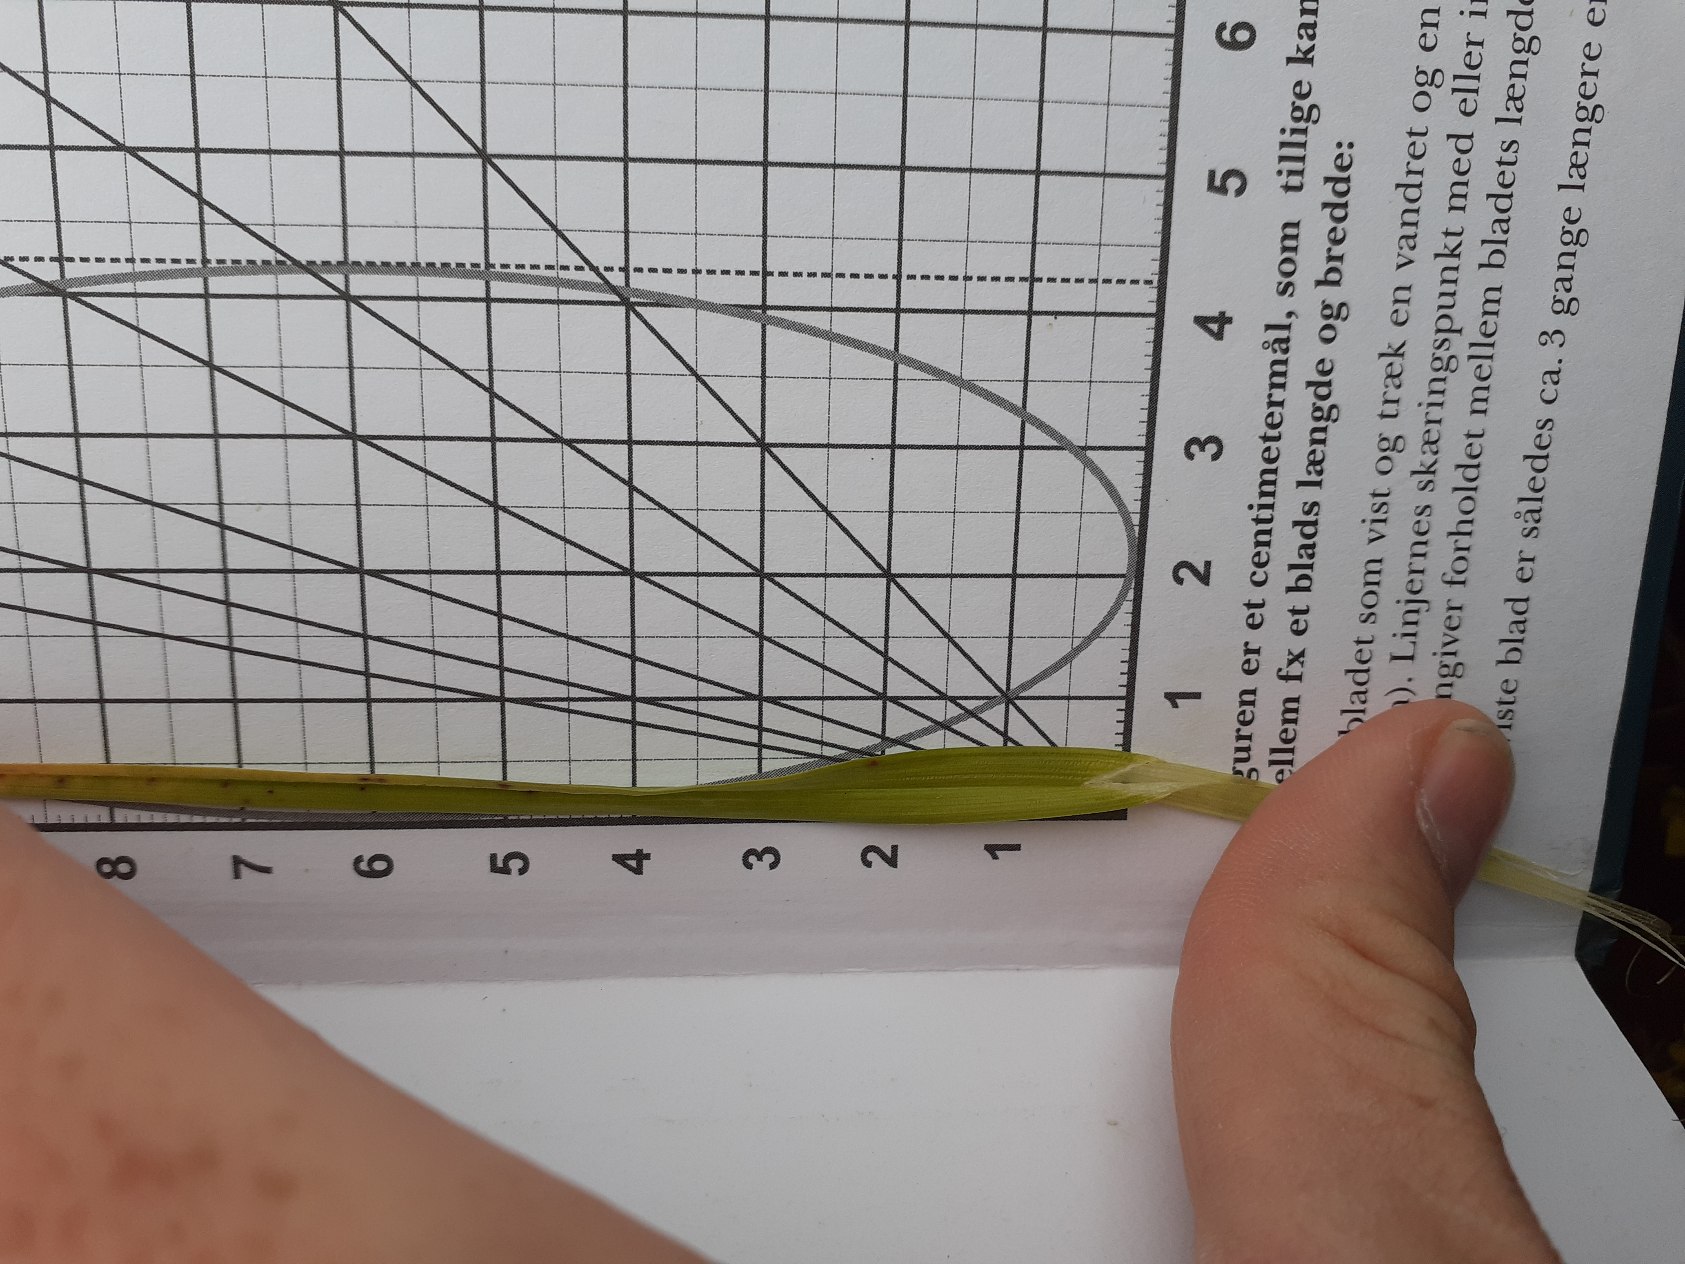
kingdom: Plantae
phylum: Tracheophyta
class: Liliopsida
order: Poales
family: Cyperaceae
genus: Carex
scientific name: Carex otrubae
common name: Sylt-star
